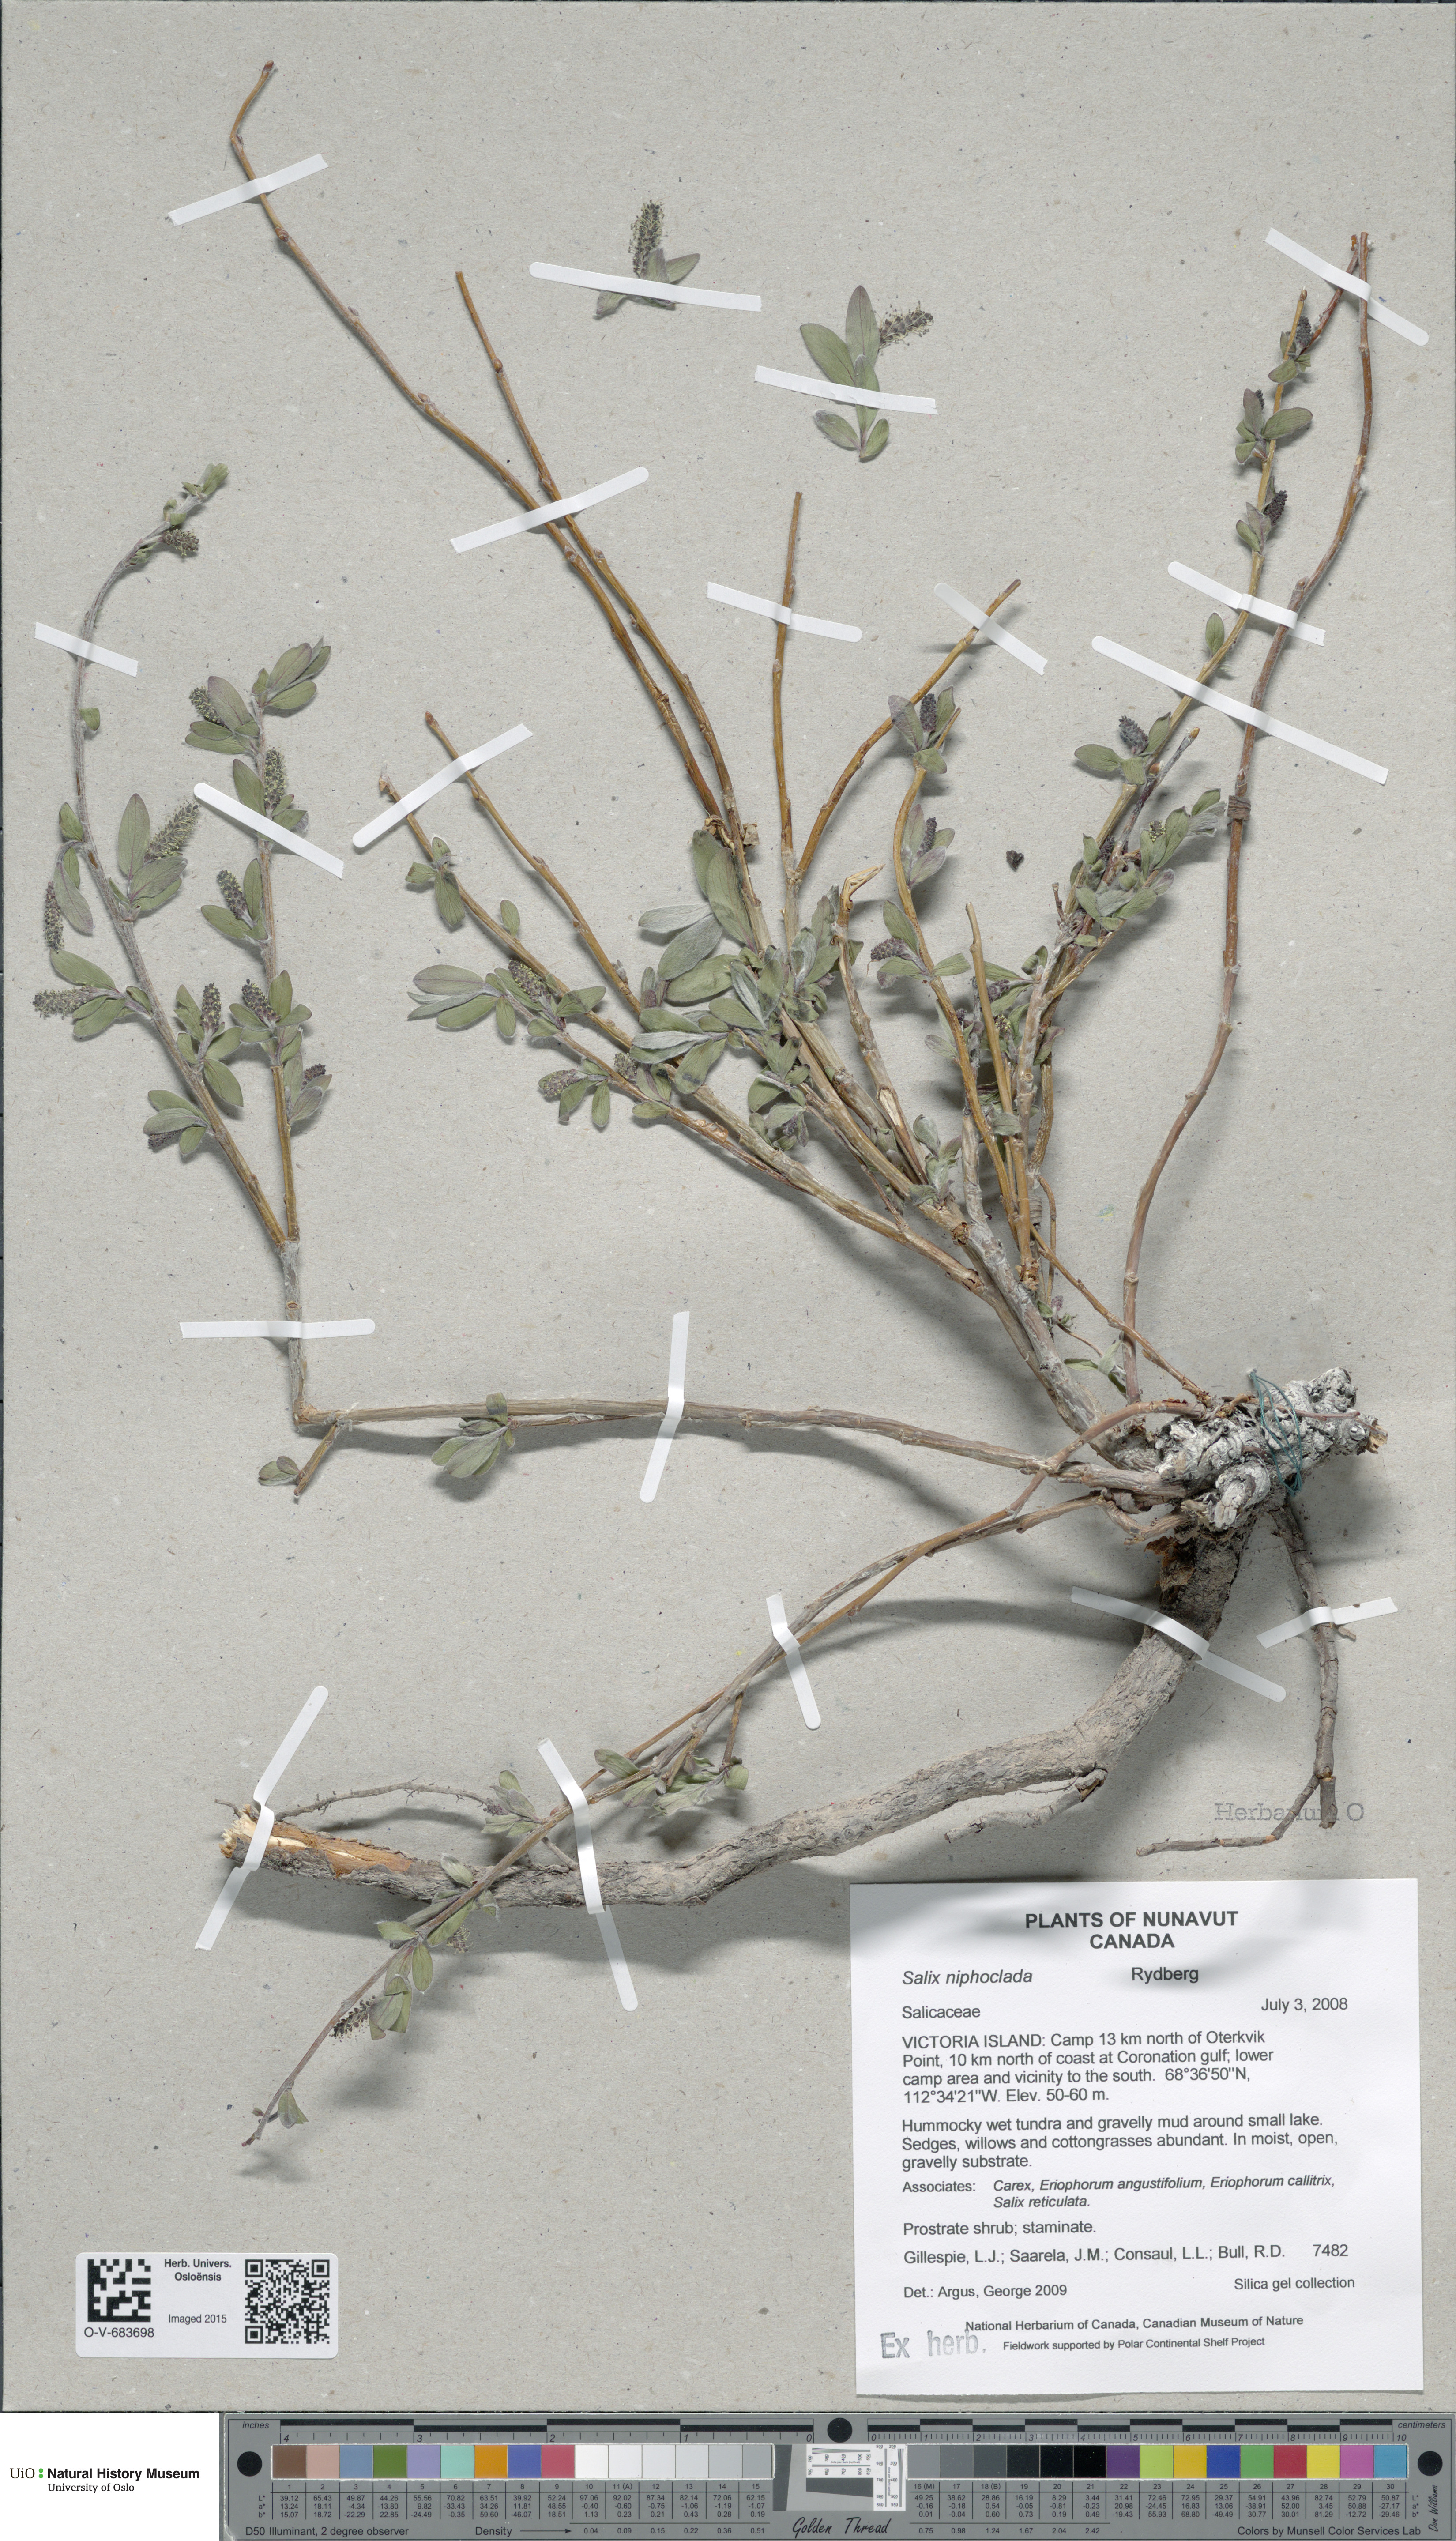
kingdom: Plantae
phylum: Tracheophyta
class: Magnoliopsida
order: Malpighiales
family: Salicaceae
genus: Salix
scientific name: Salix niphoclada
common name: Barren-ground willow
